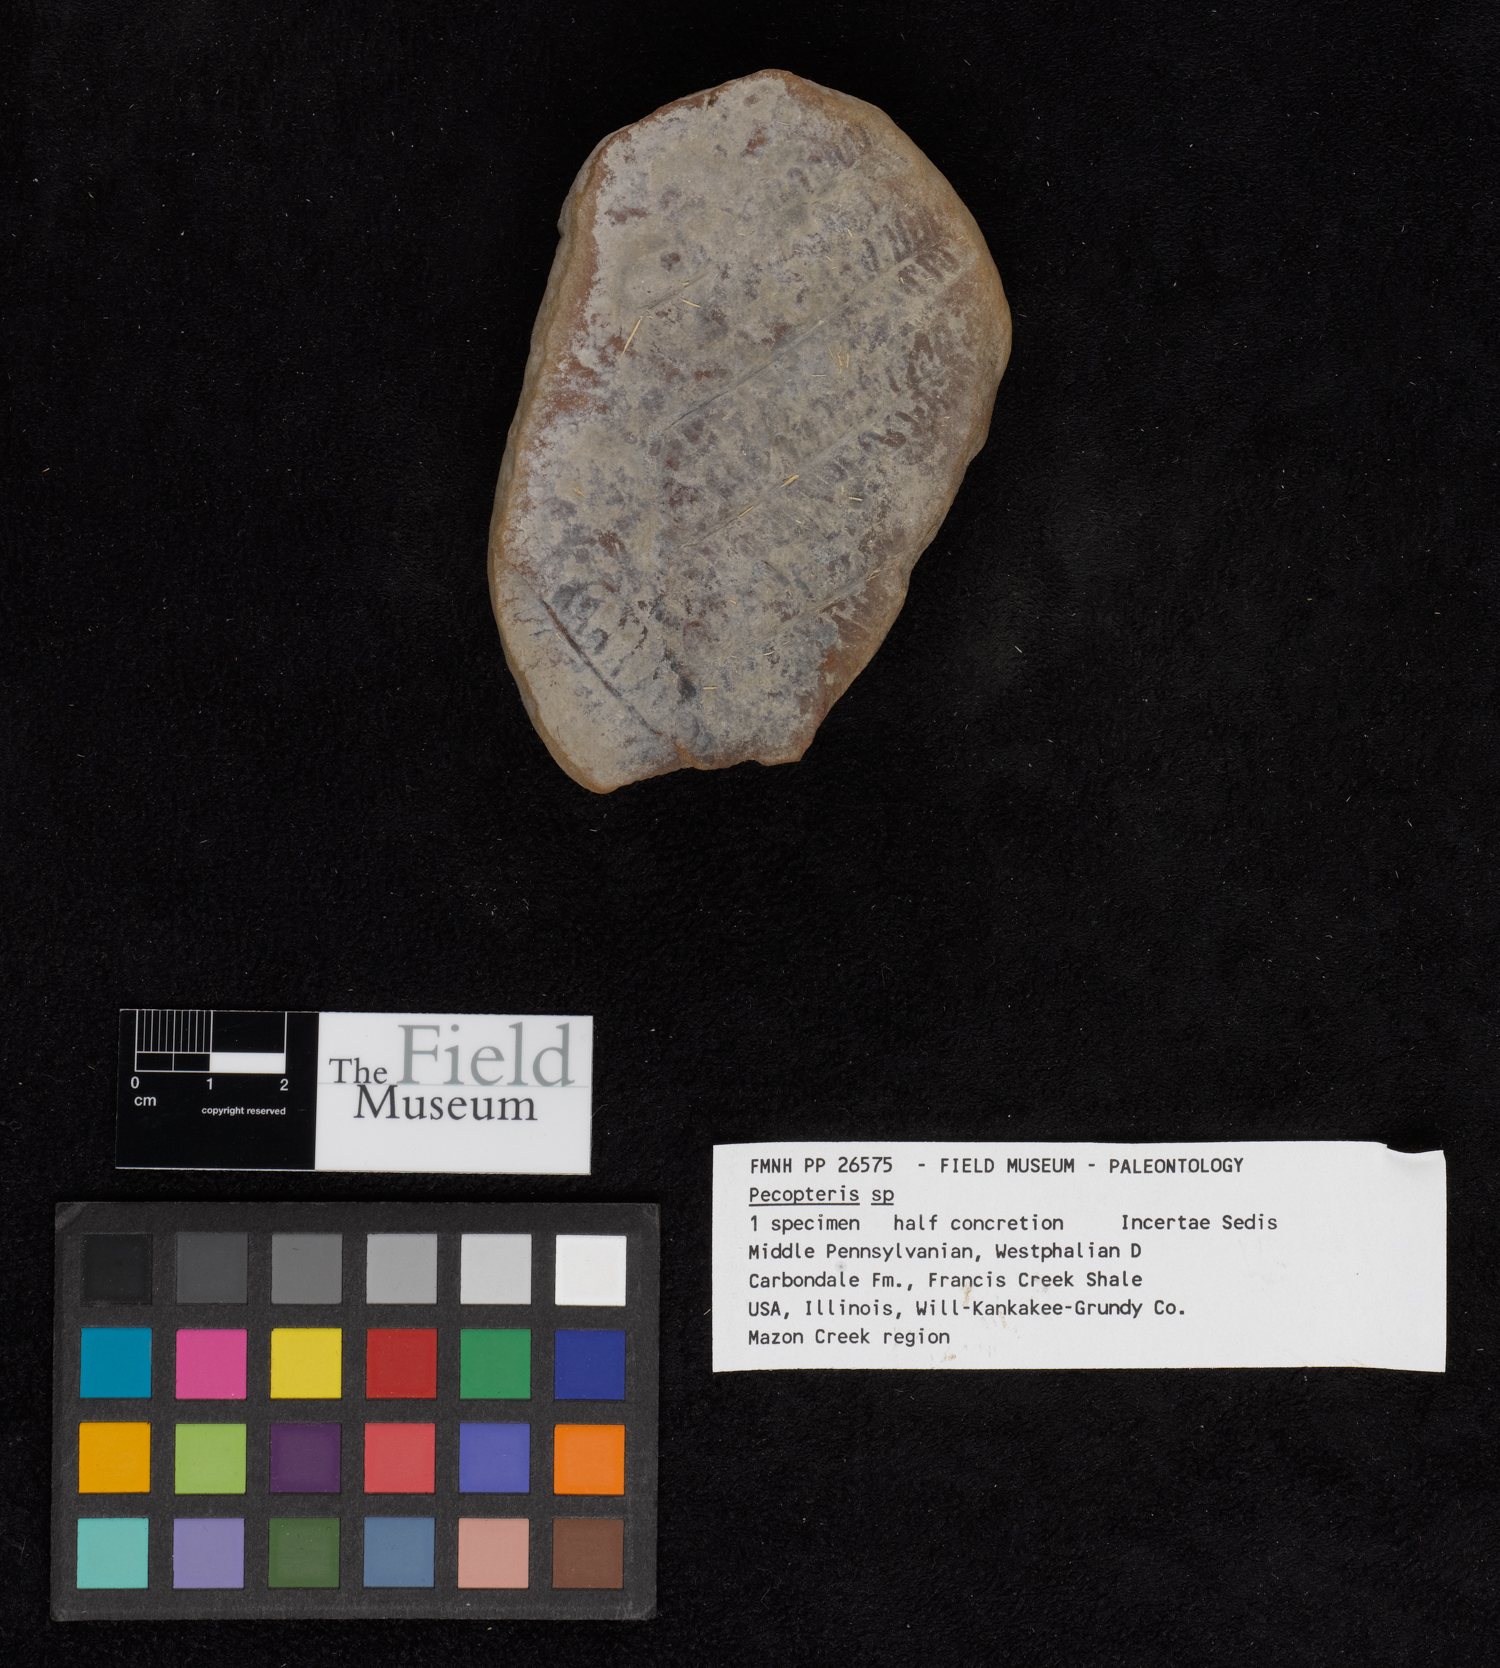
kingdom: Plantae
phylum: Tracheophyta
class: Polypodiopsida
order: Marattiales
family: Asterothecaceae
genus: Pecopteris
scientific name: Pecopteris
